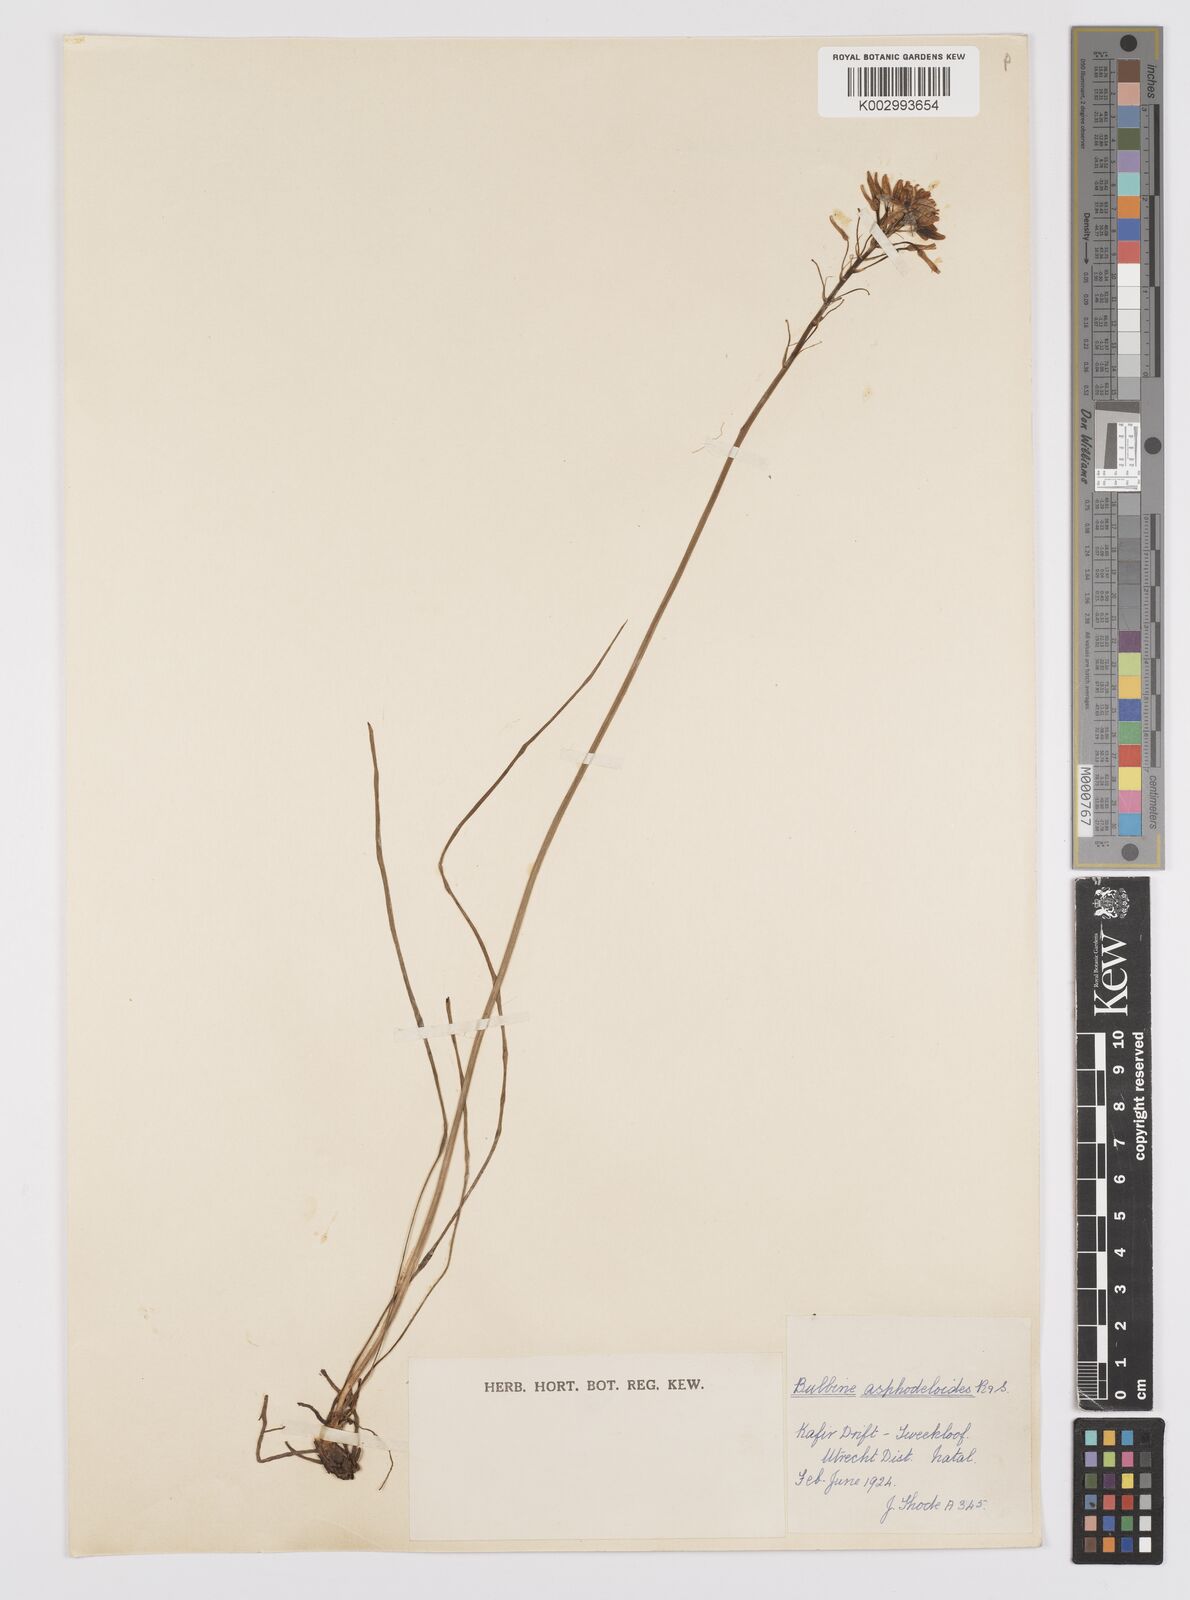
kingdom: Plantae
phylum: Tracheophyta
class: Liliopsida
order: Asparagales
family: Asphodelaceae
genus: Bulbine
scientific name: Bulbine coetzeei
